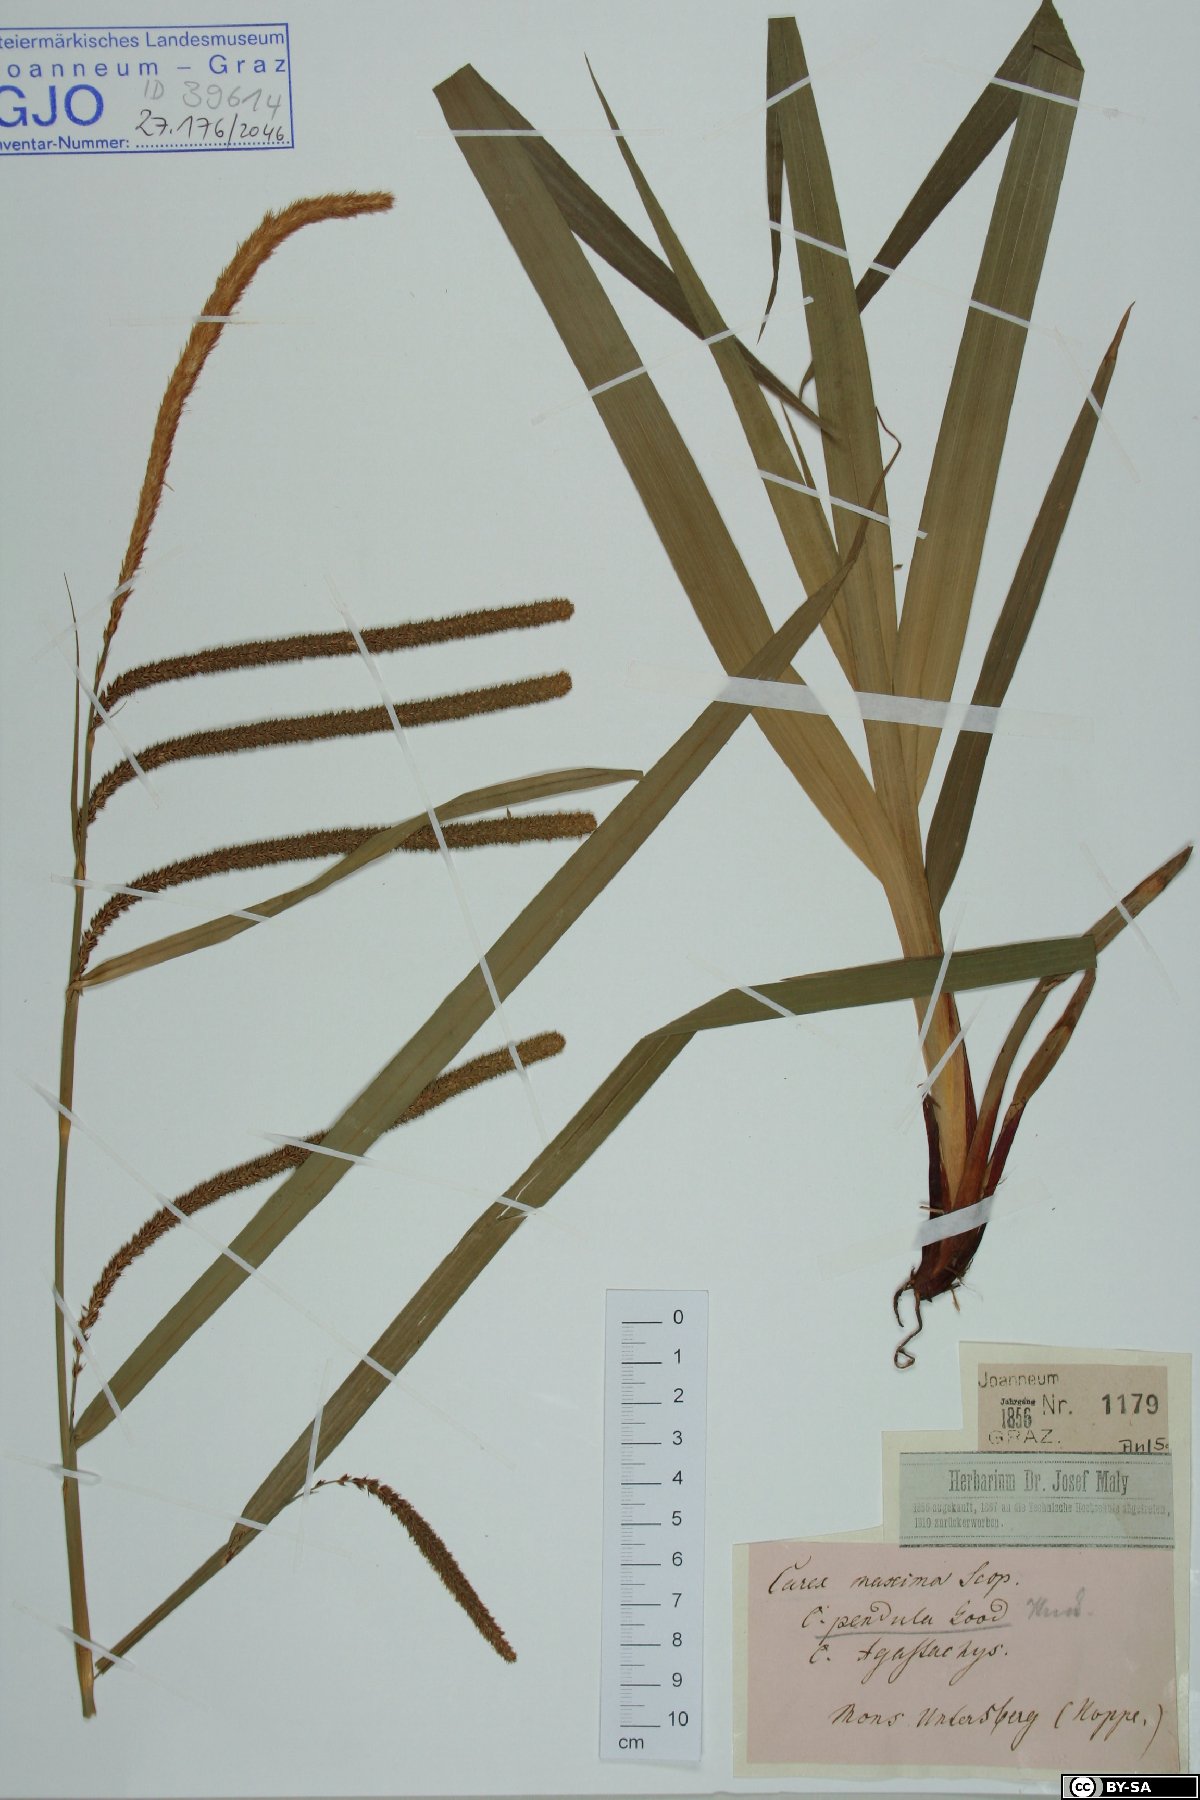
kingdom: Plantae
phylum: Tracheophyta
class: Liliopsida
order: Poales
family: Cyperaceae
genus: Carex
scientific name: Carex pendula
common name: Pendulous sedge
